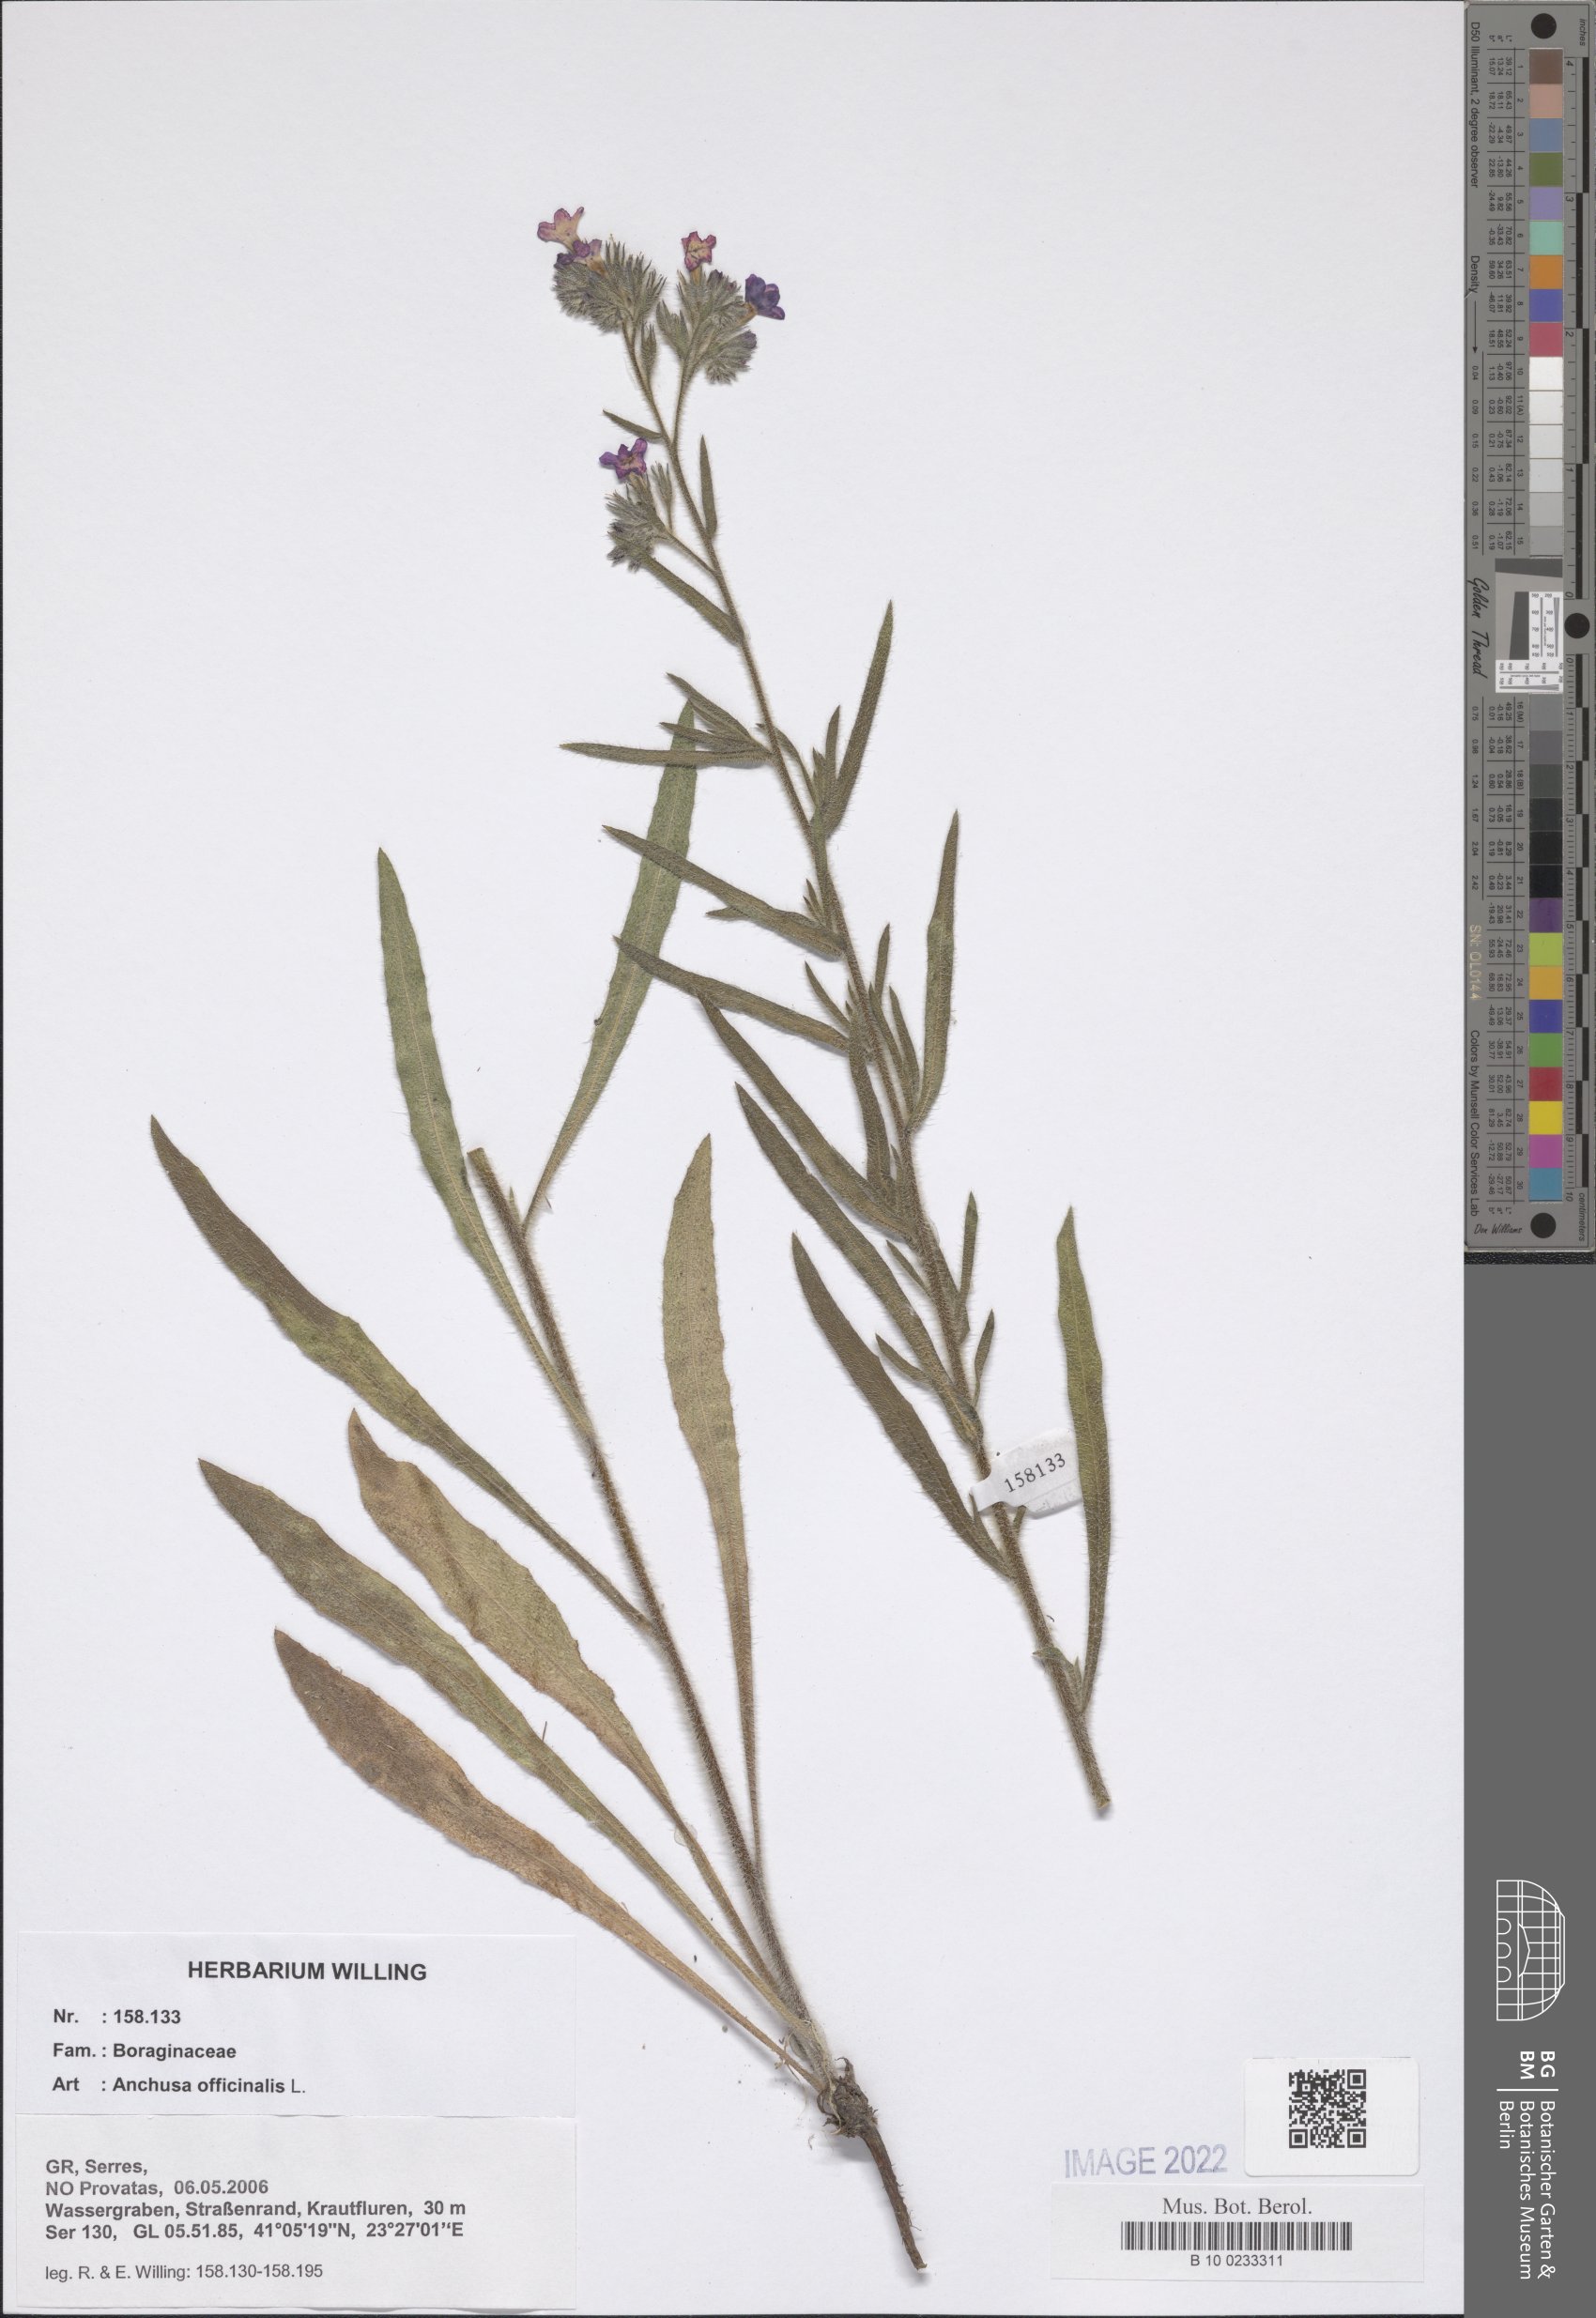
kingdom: Plantae
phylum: Tracheophyta
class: Magnoliopsida
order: Boraginales
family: Boraginaceae
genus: Anchusa
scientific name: Anchusa officinalis
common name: Alkanet
